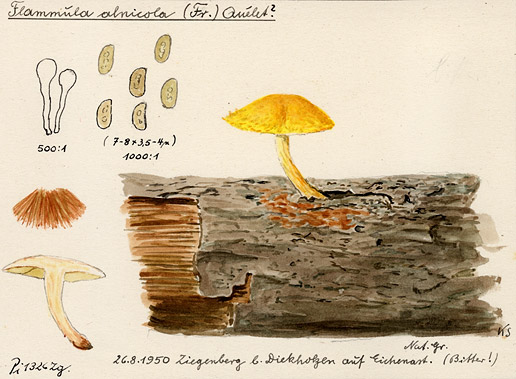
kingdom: Fungi
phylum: Basidiomycota
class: Agaricomycetes
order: Agaricales
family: Hymenogastraceae
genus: Flammula
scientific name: Flammula alnicola
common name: Alder scalycap
